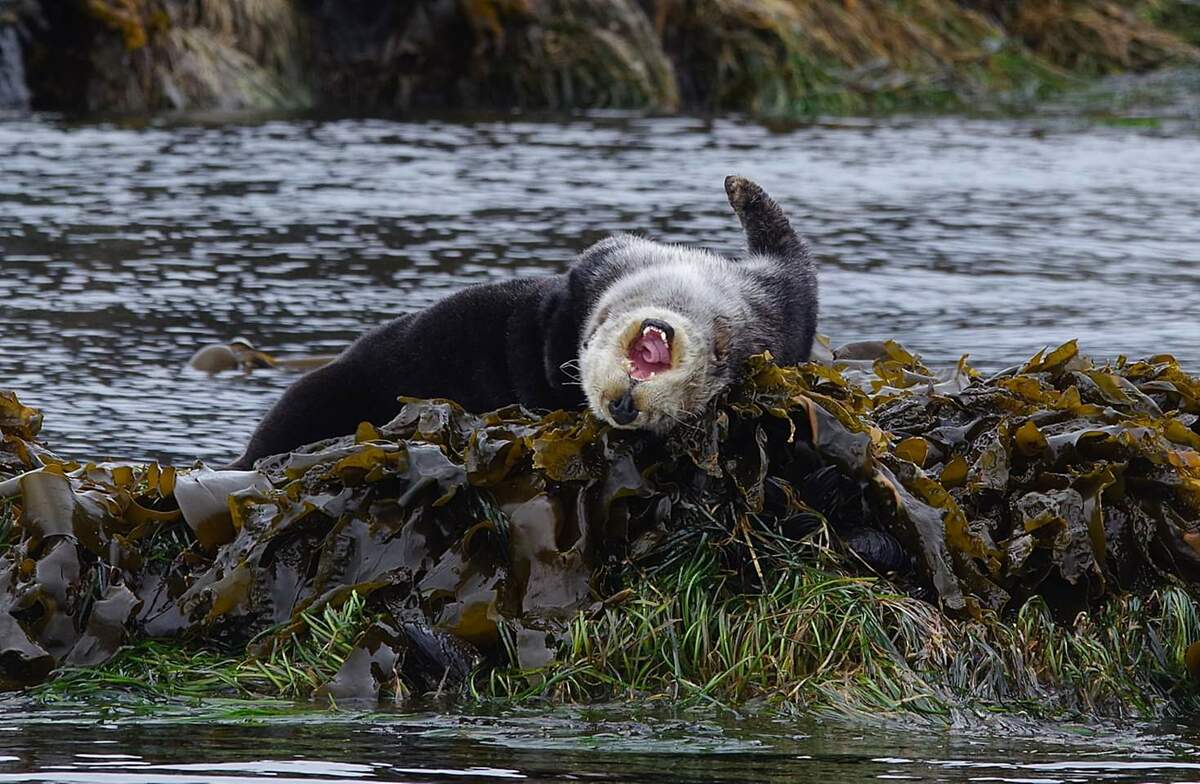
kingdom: Animalia
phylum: Chordata
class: Mammalia
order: Carnivora
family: Otariidae
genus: Zalophus
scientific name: Zalophus californianus
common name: California sea lion
